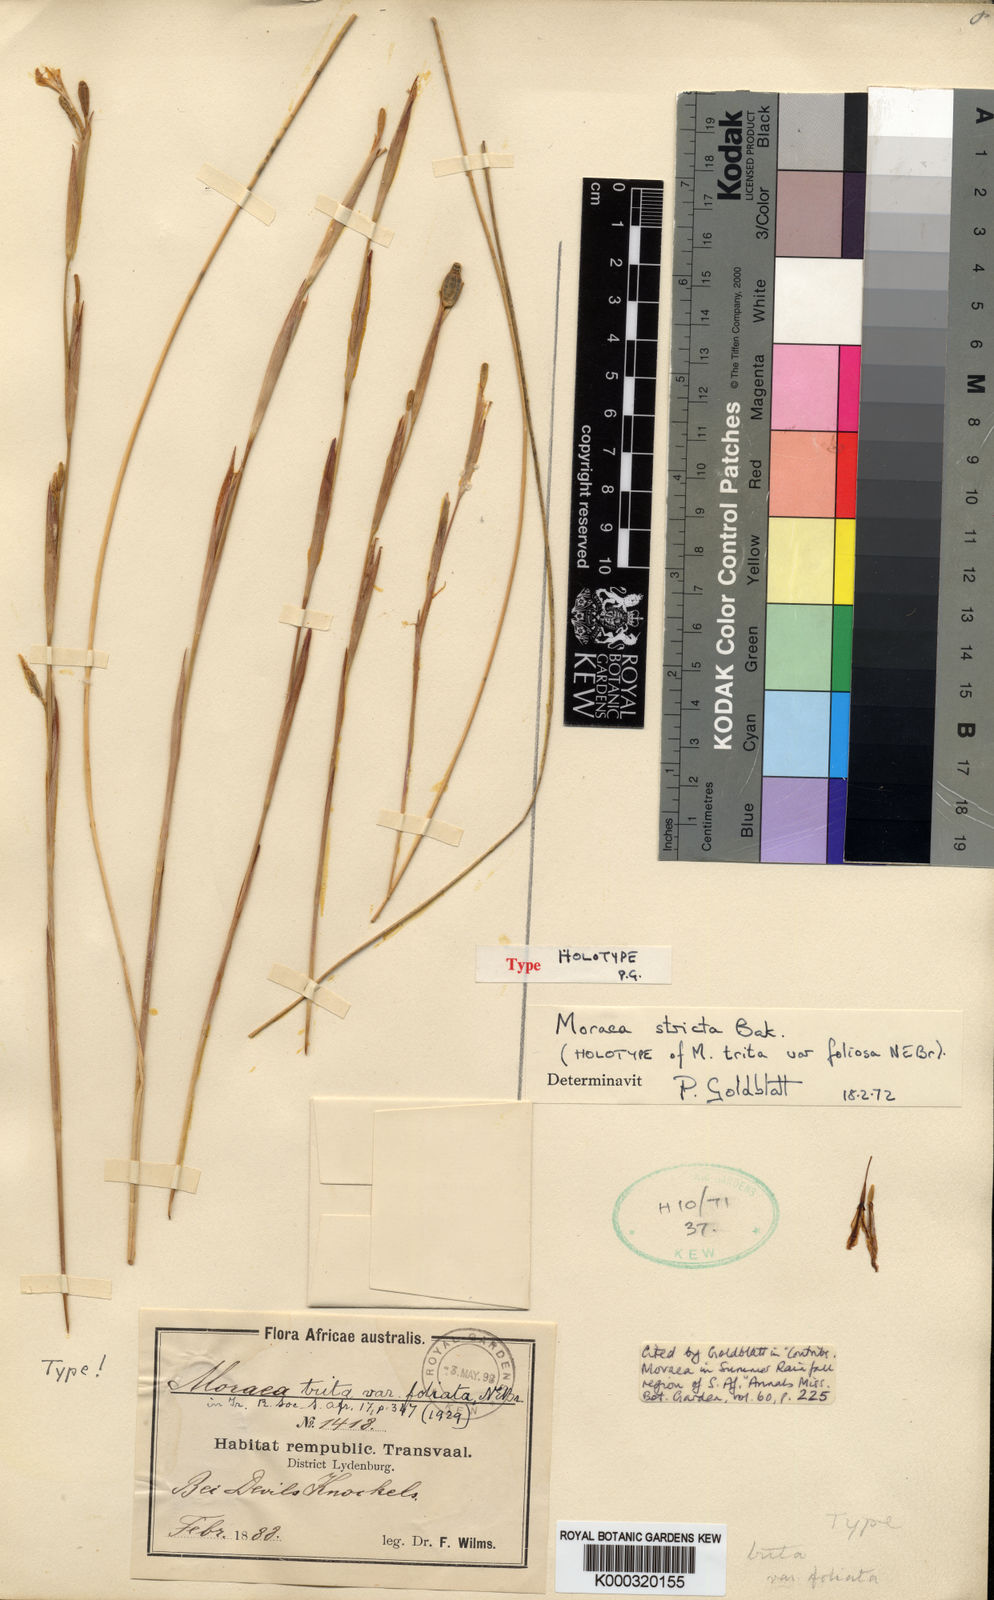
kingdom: Plantae
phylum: Tracheophyta
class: Liliopsida
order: Asparagales
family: Iridaceae
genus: Moraea
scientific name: Moraea stricta
